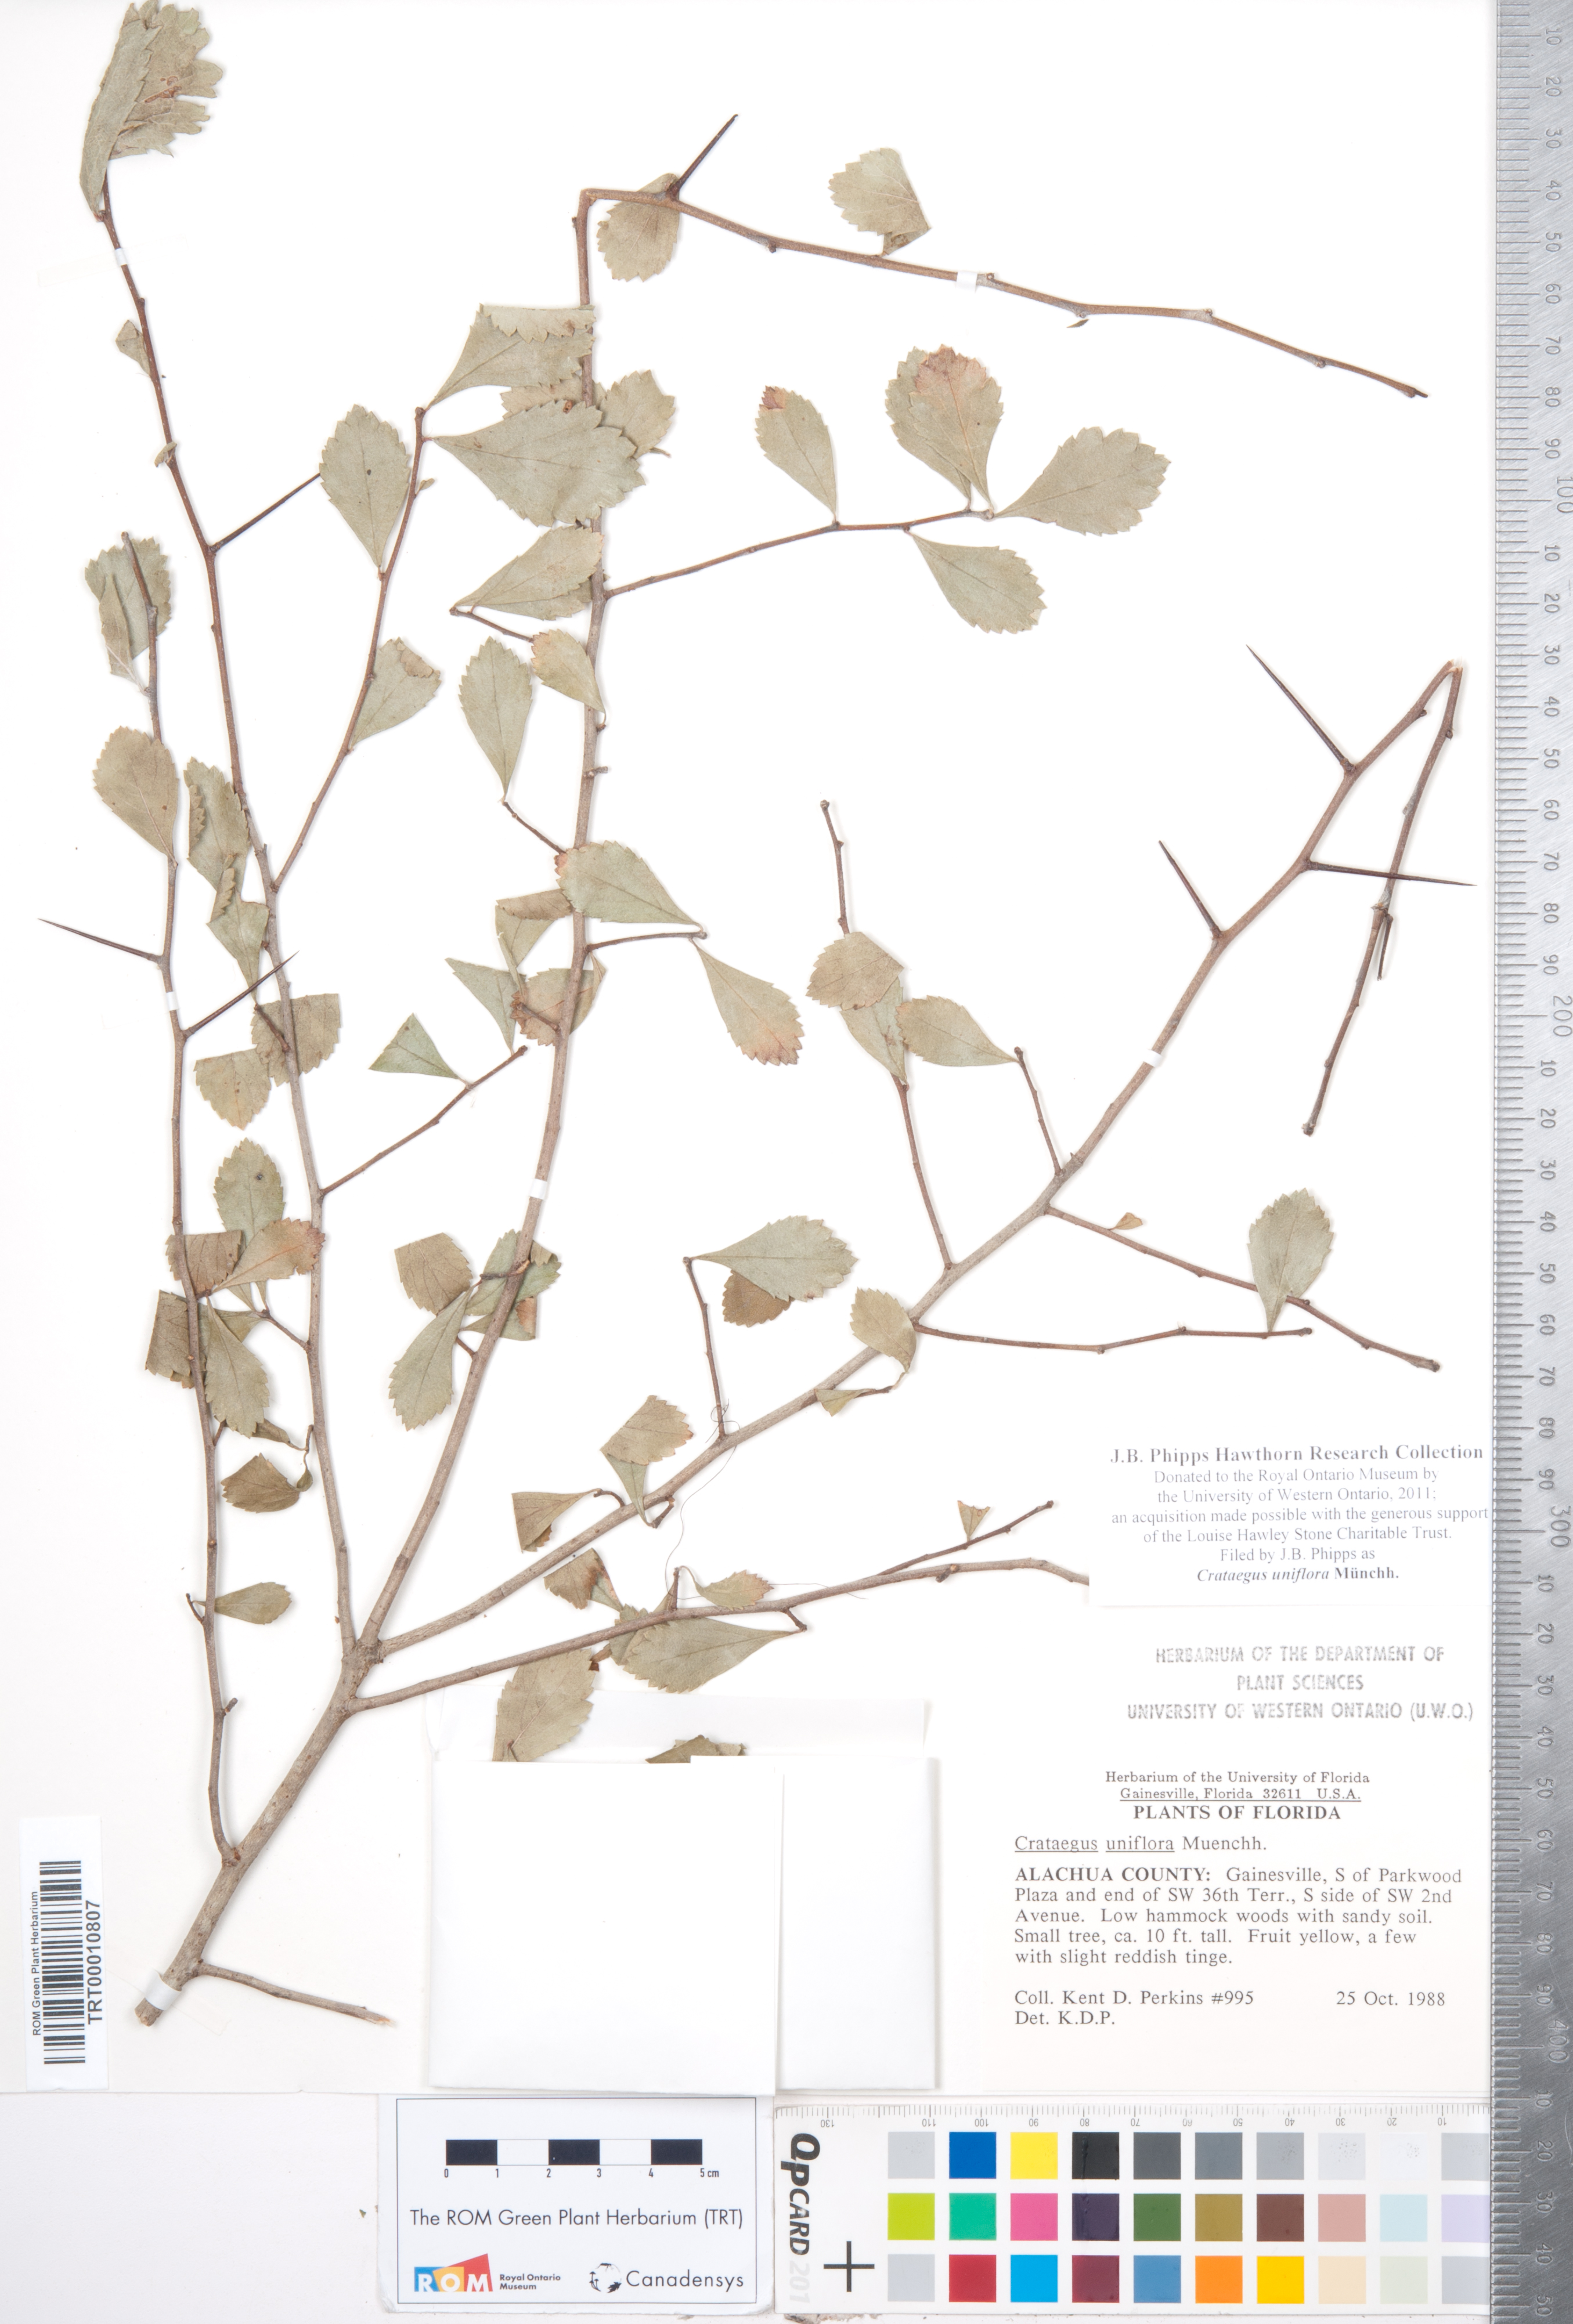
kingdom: Plantae
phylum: Tracheophyta
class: Magnoliopsida
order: Rosales
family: Rosaceae
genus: Crataegus
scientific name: Crataegus uniflora
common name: One-flower hawthorn
